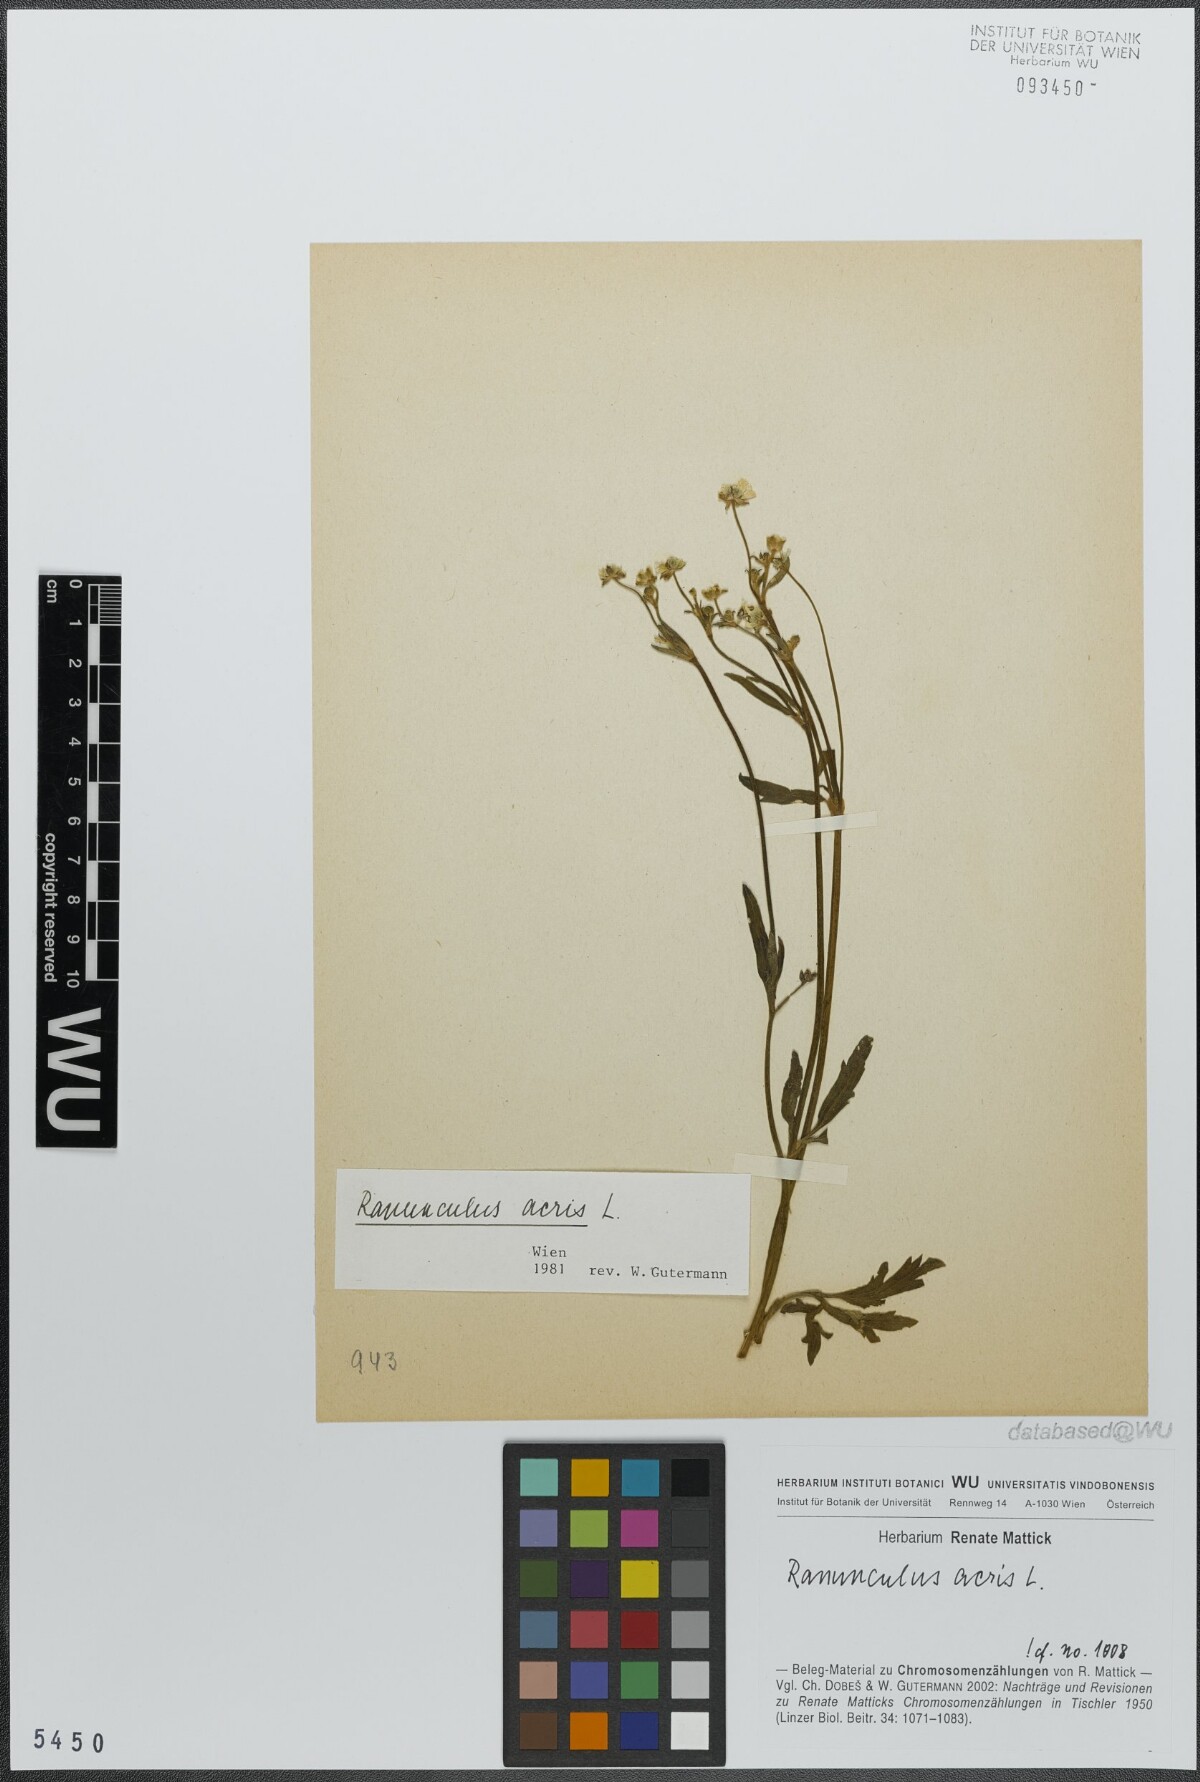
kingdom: Plantae
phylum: Tracheophyta
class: Magnoliopsida
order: Ranunculales
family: Ranunculaceae
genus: Ranunculus
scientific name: Ranunculus acris
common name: Meadow buttercup
